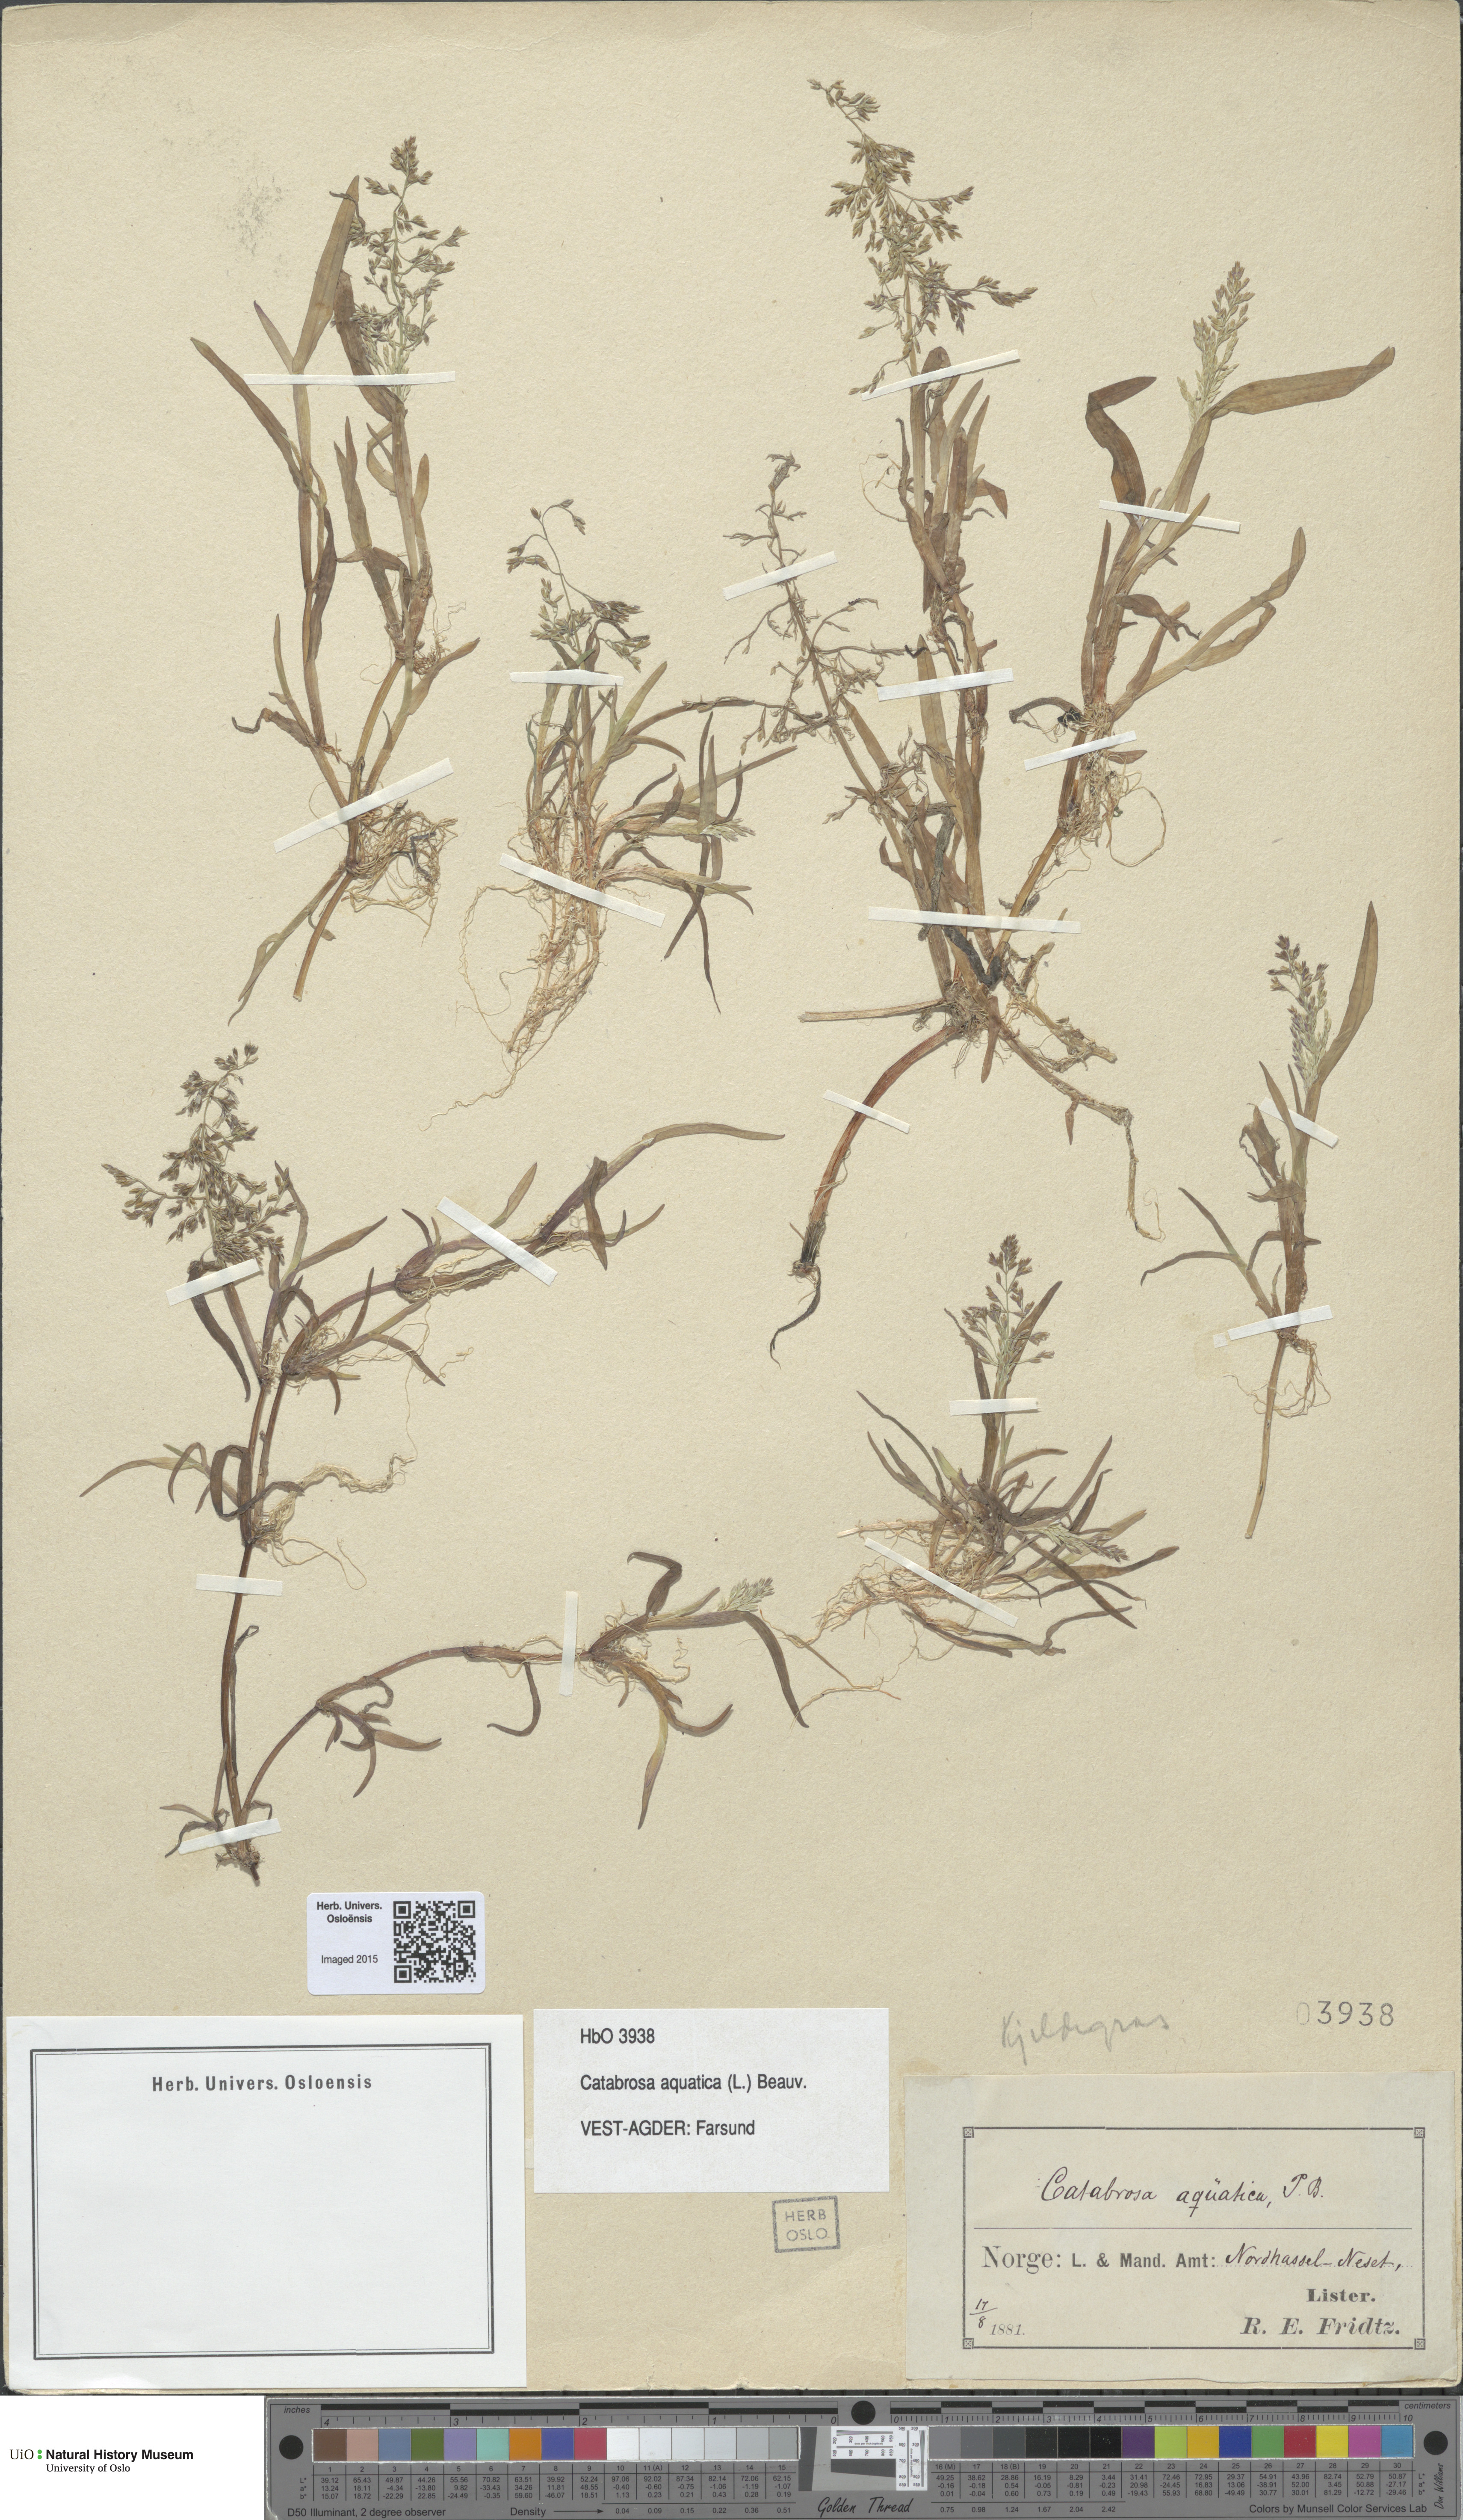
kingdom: Plantae
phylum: Tracheophyta
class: Liliopsida
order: Poales
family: Poaceae
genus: Catabrosa
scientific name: Catabrosa aquatica
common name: Whorl-grass
